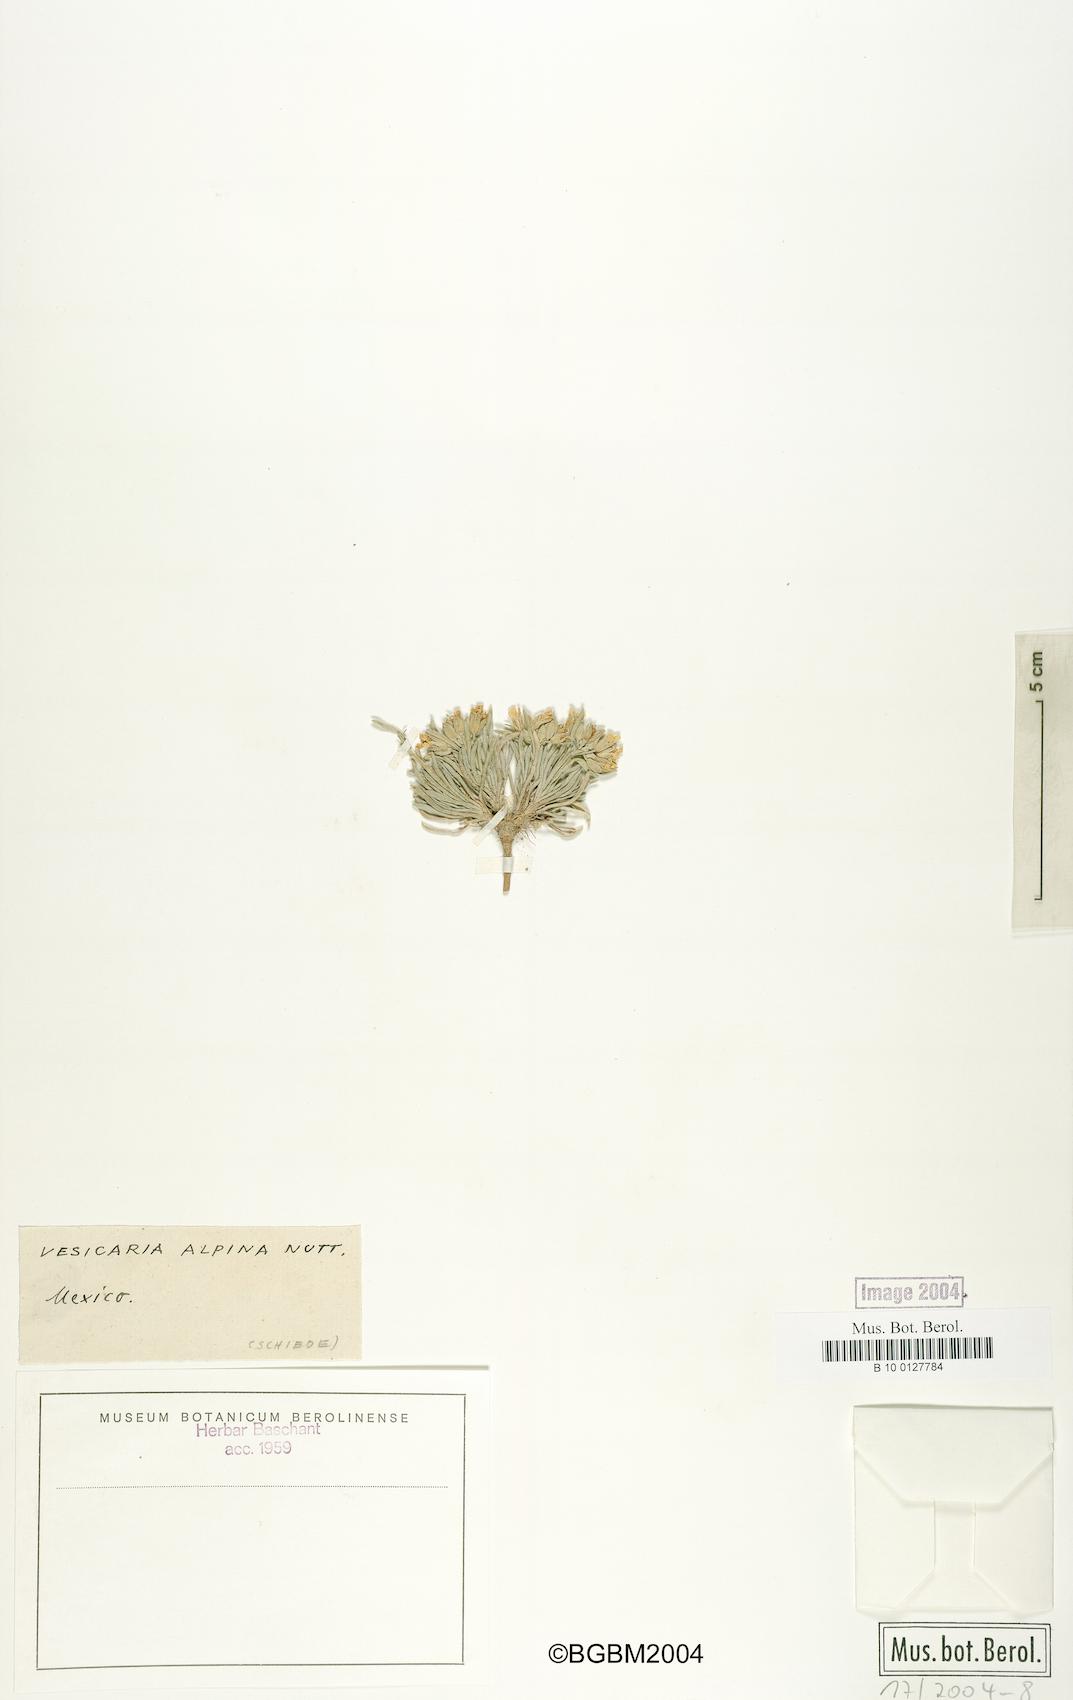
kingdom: Plantae
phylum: Tracheophyta
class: Magnoliopsida
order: Brassicales
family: Brassicaceae
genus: Physaria
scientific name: Physaria reediana
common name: Rollins's bladderpod
